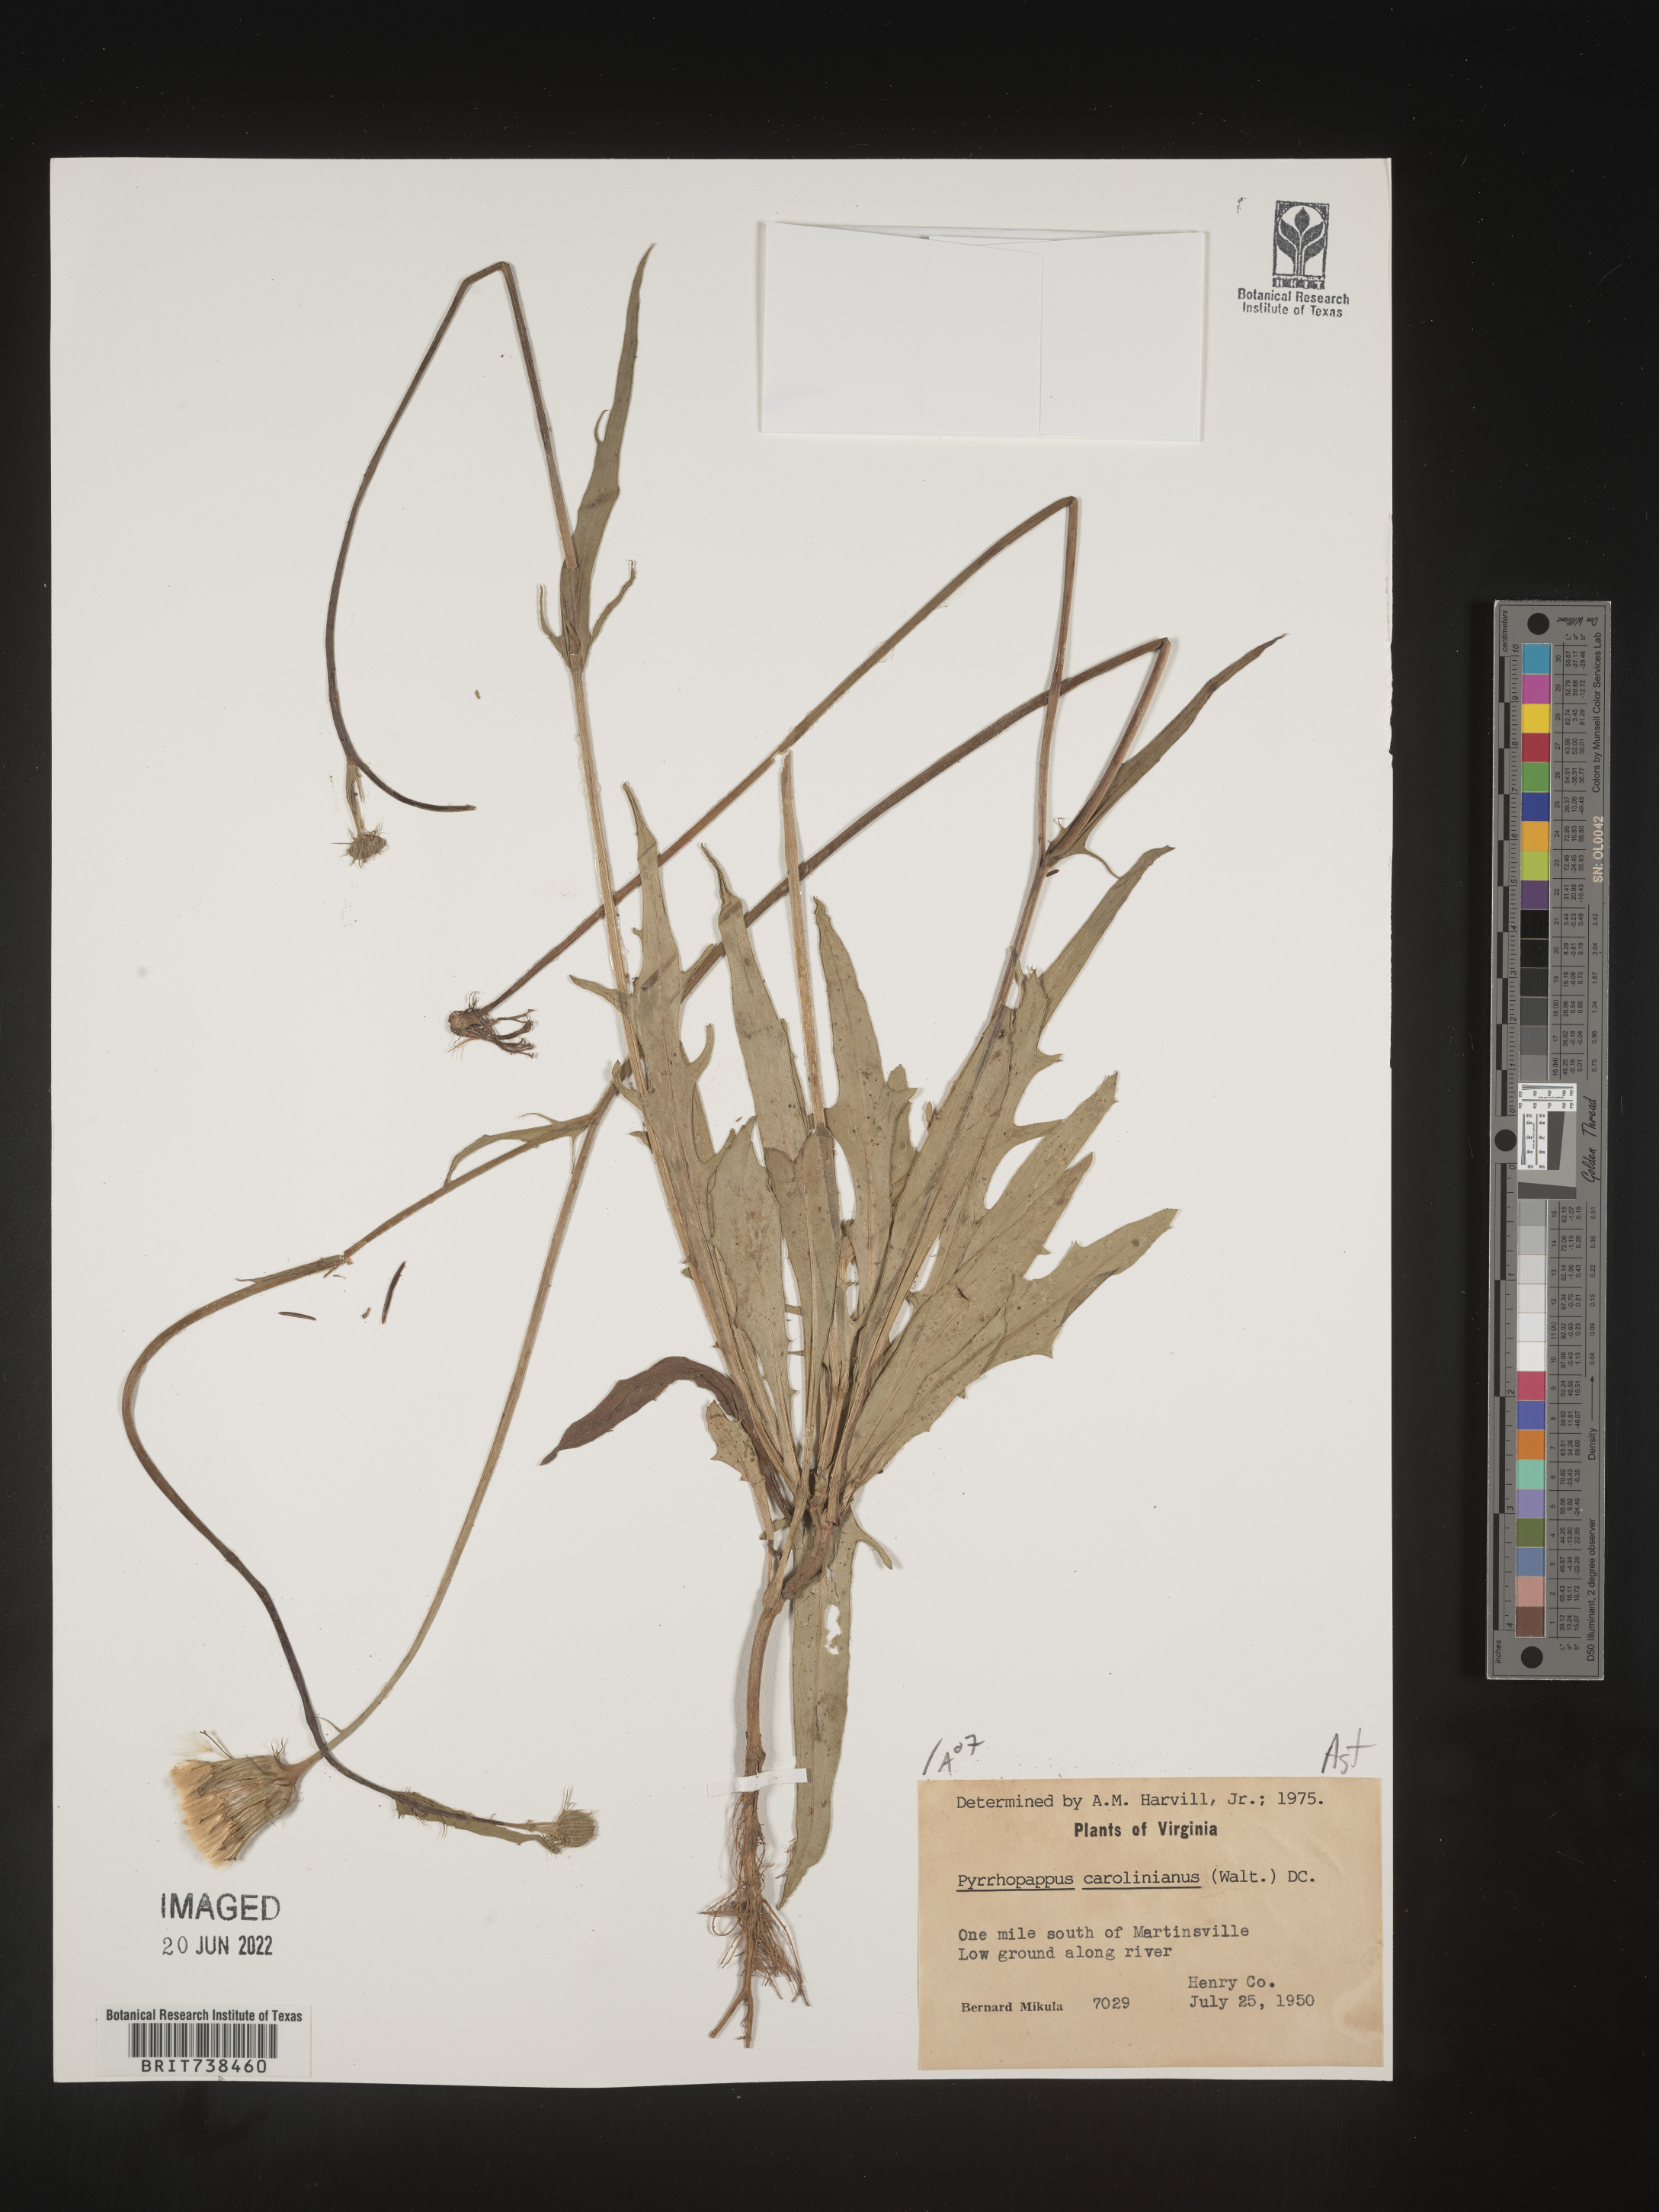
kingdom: Plantae
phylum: Tracheophyta
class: Magnoliopsida
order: Asterales
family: Asteraceae
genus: Pyrrhopappus
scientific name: Pyrrhopappus carolinianus
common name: Carolina desert-chicory
